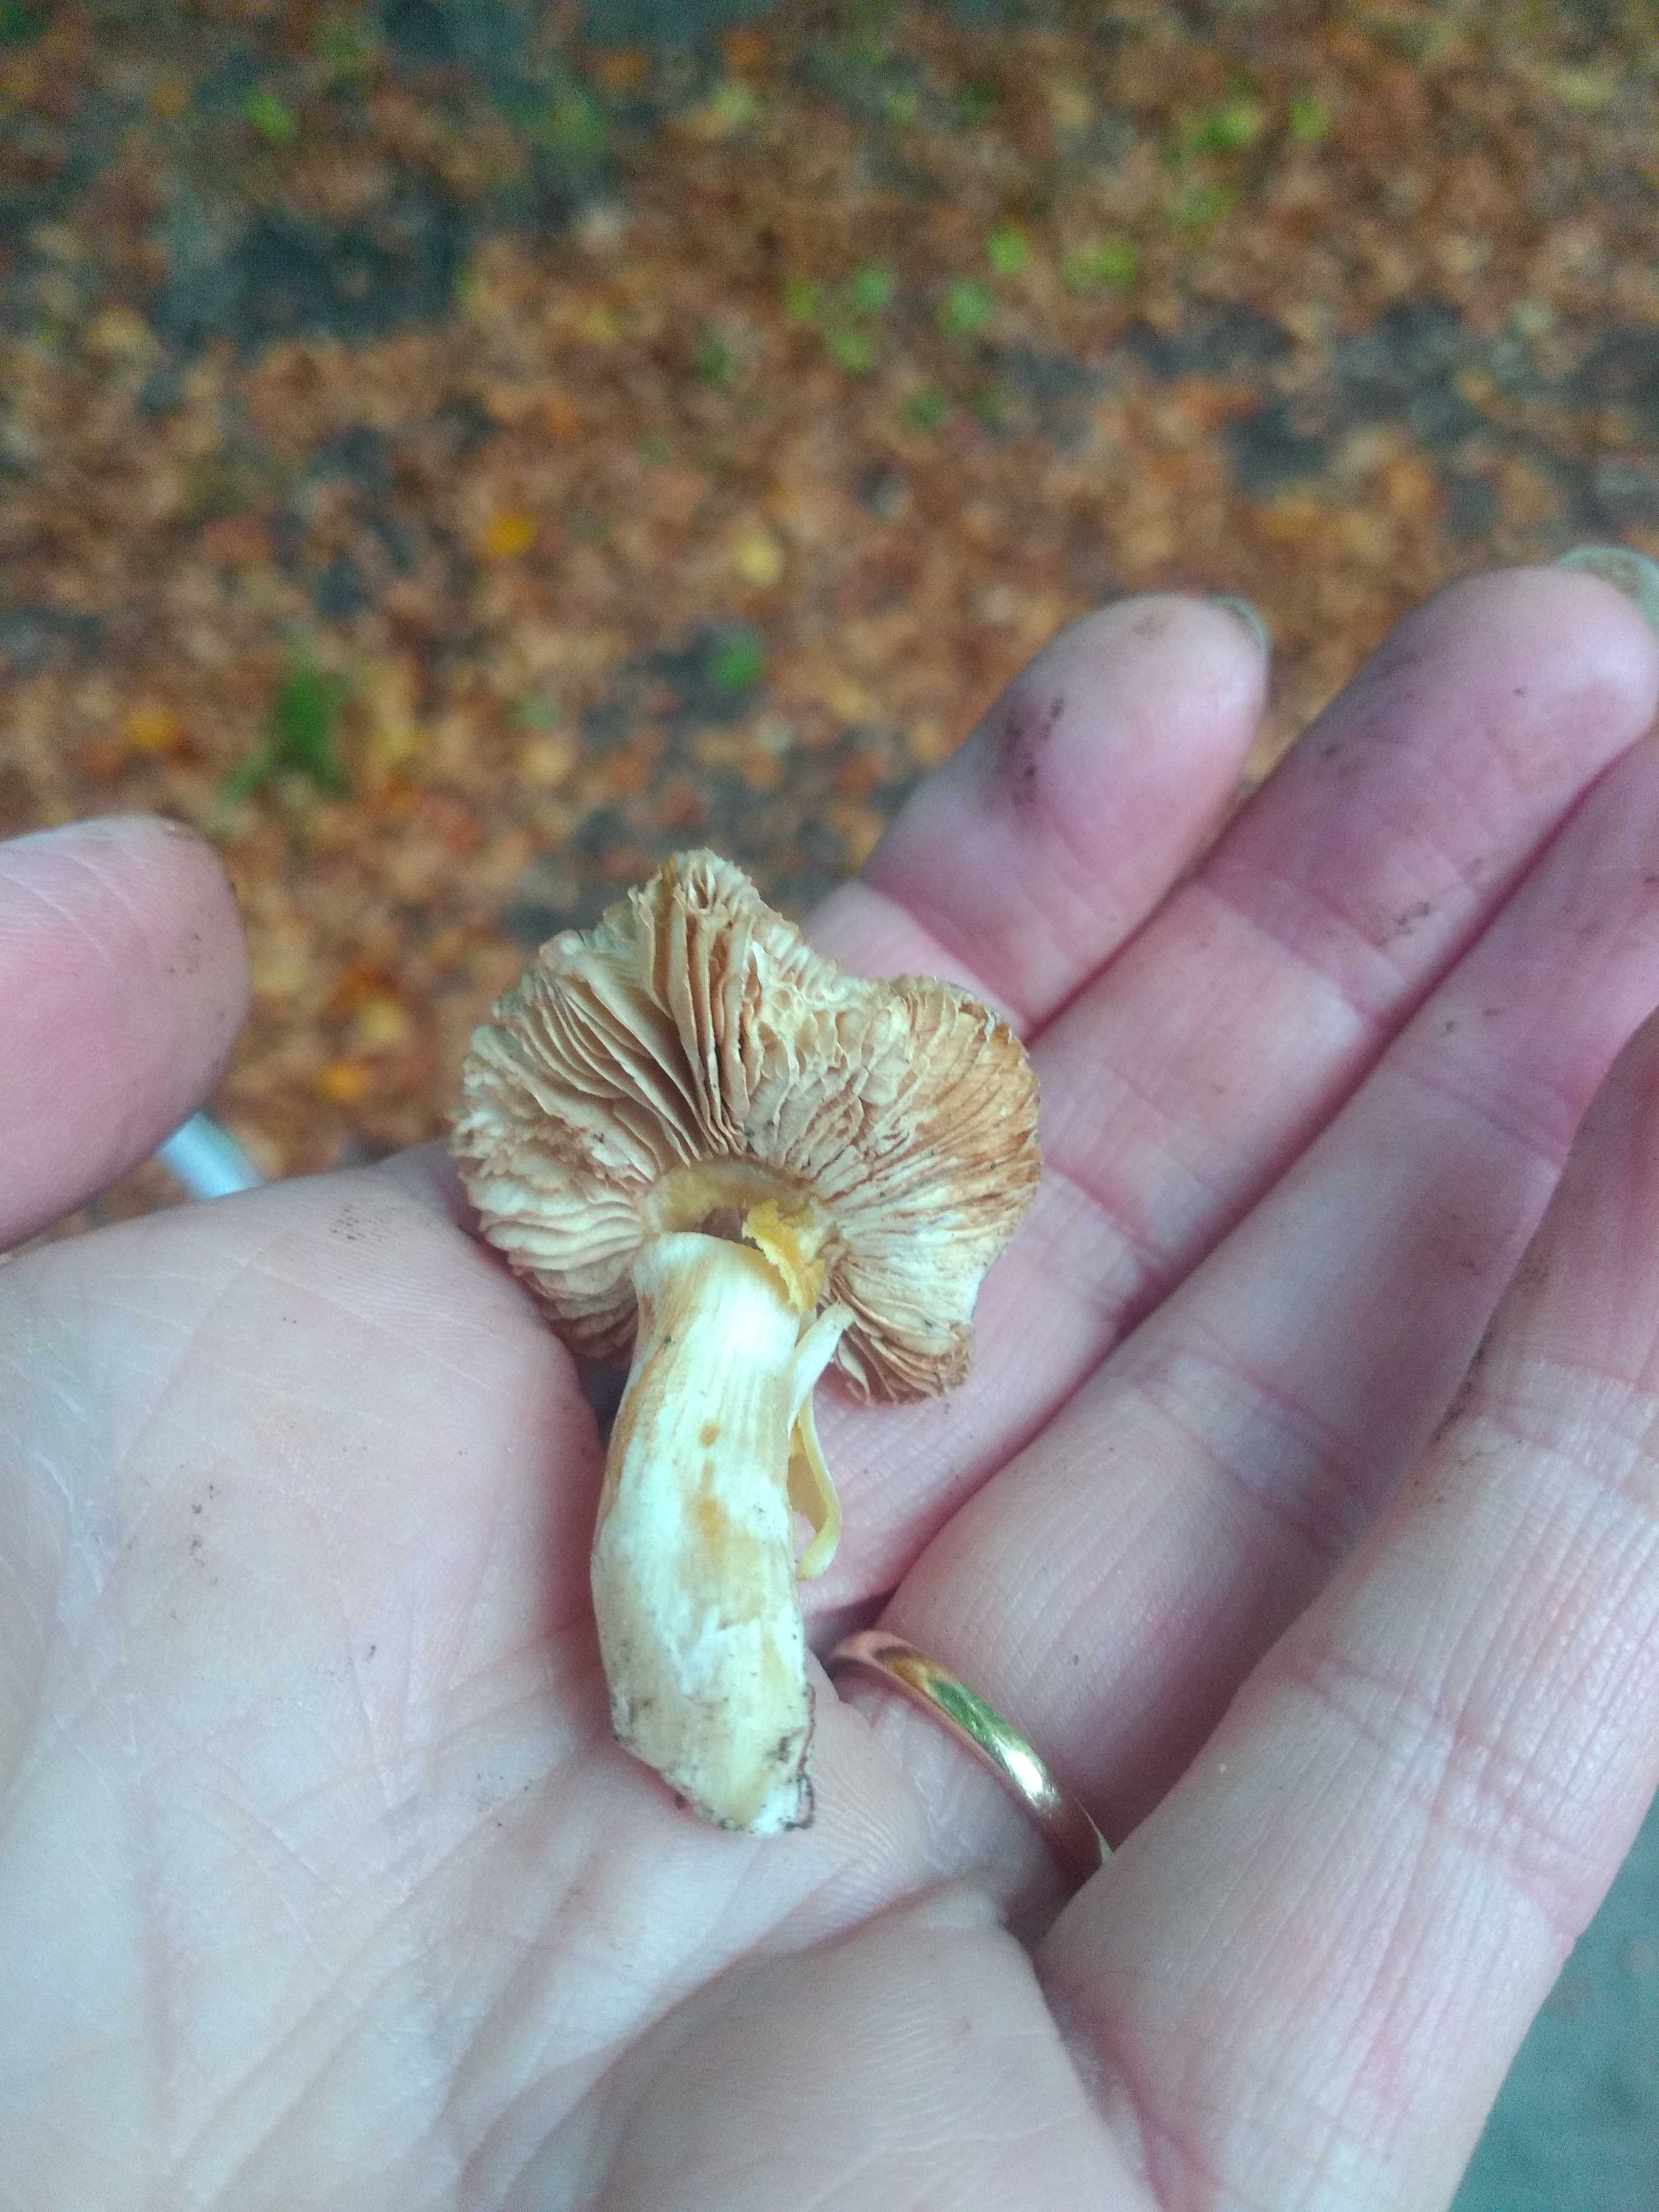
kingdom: Fungi
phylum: Basidiomycota
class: Agaricomycetes
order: Agaricales
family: Cortinariaceae
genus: Thaxterogaster
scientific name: Thaxterogaster croceocoeruleus
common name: blågullig slørhat
